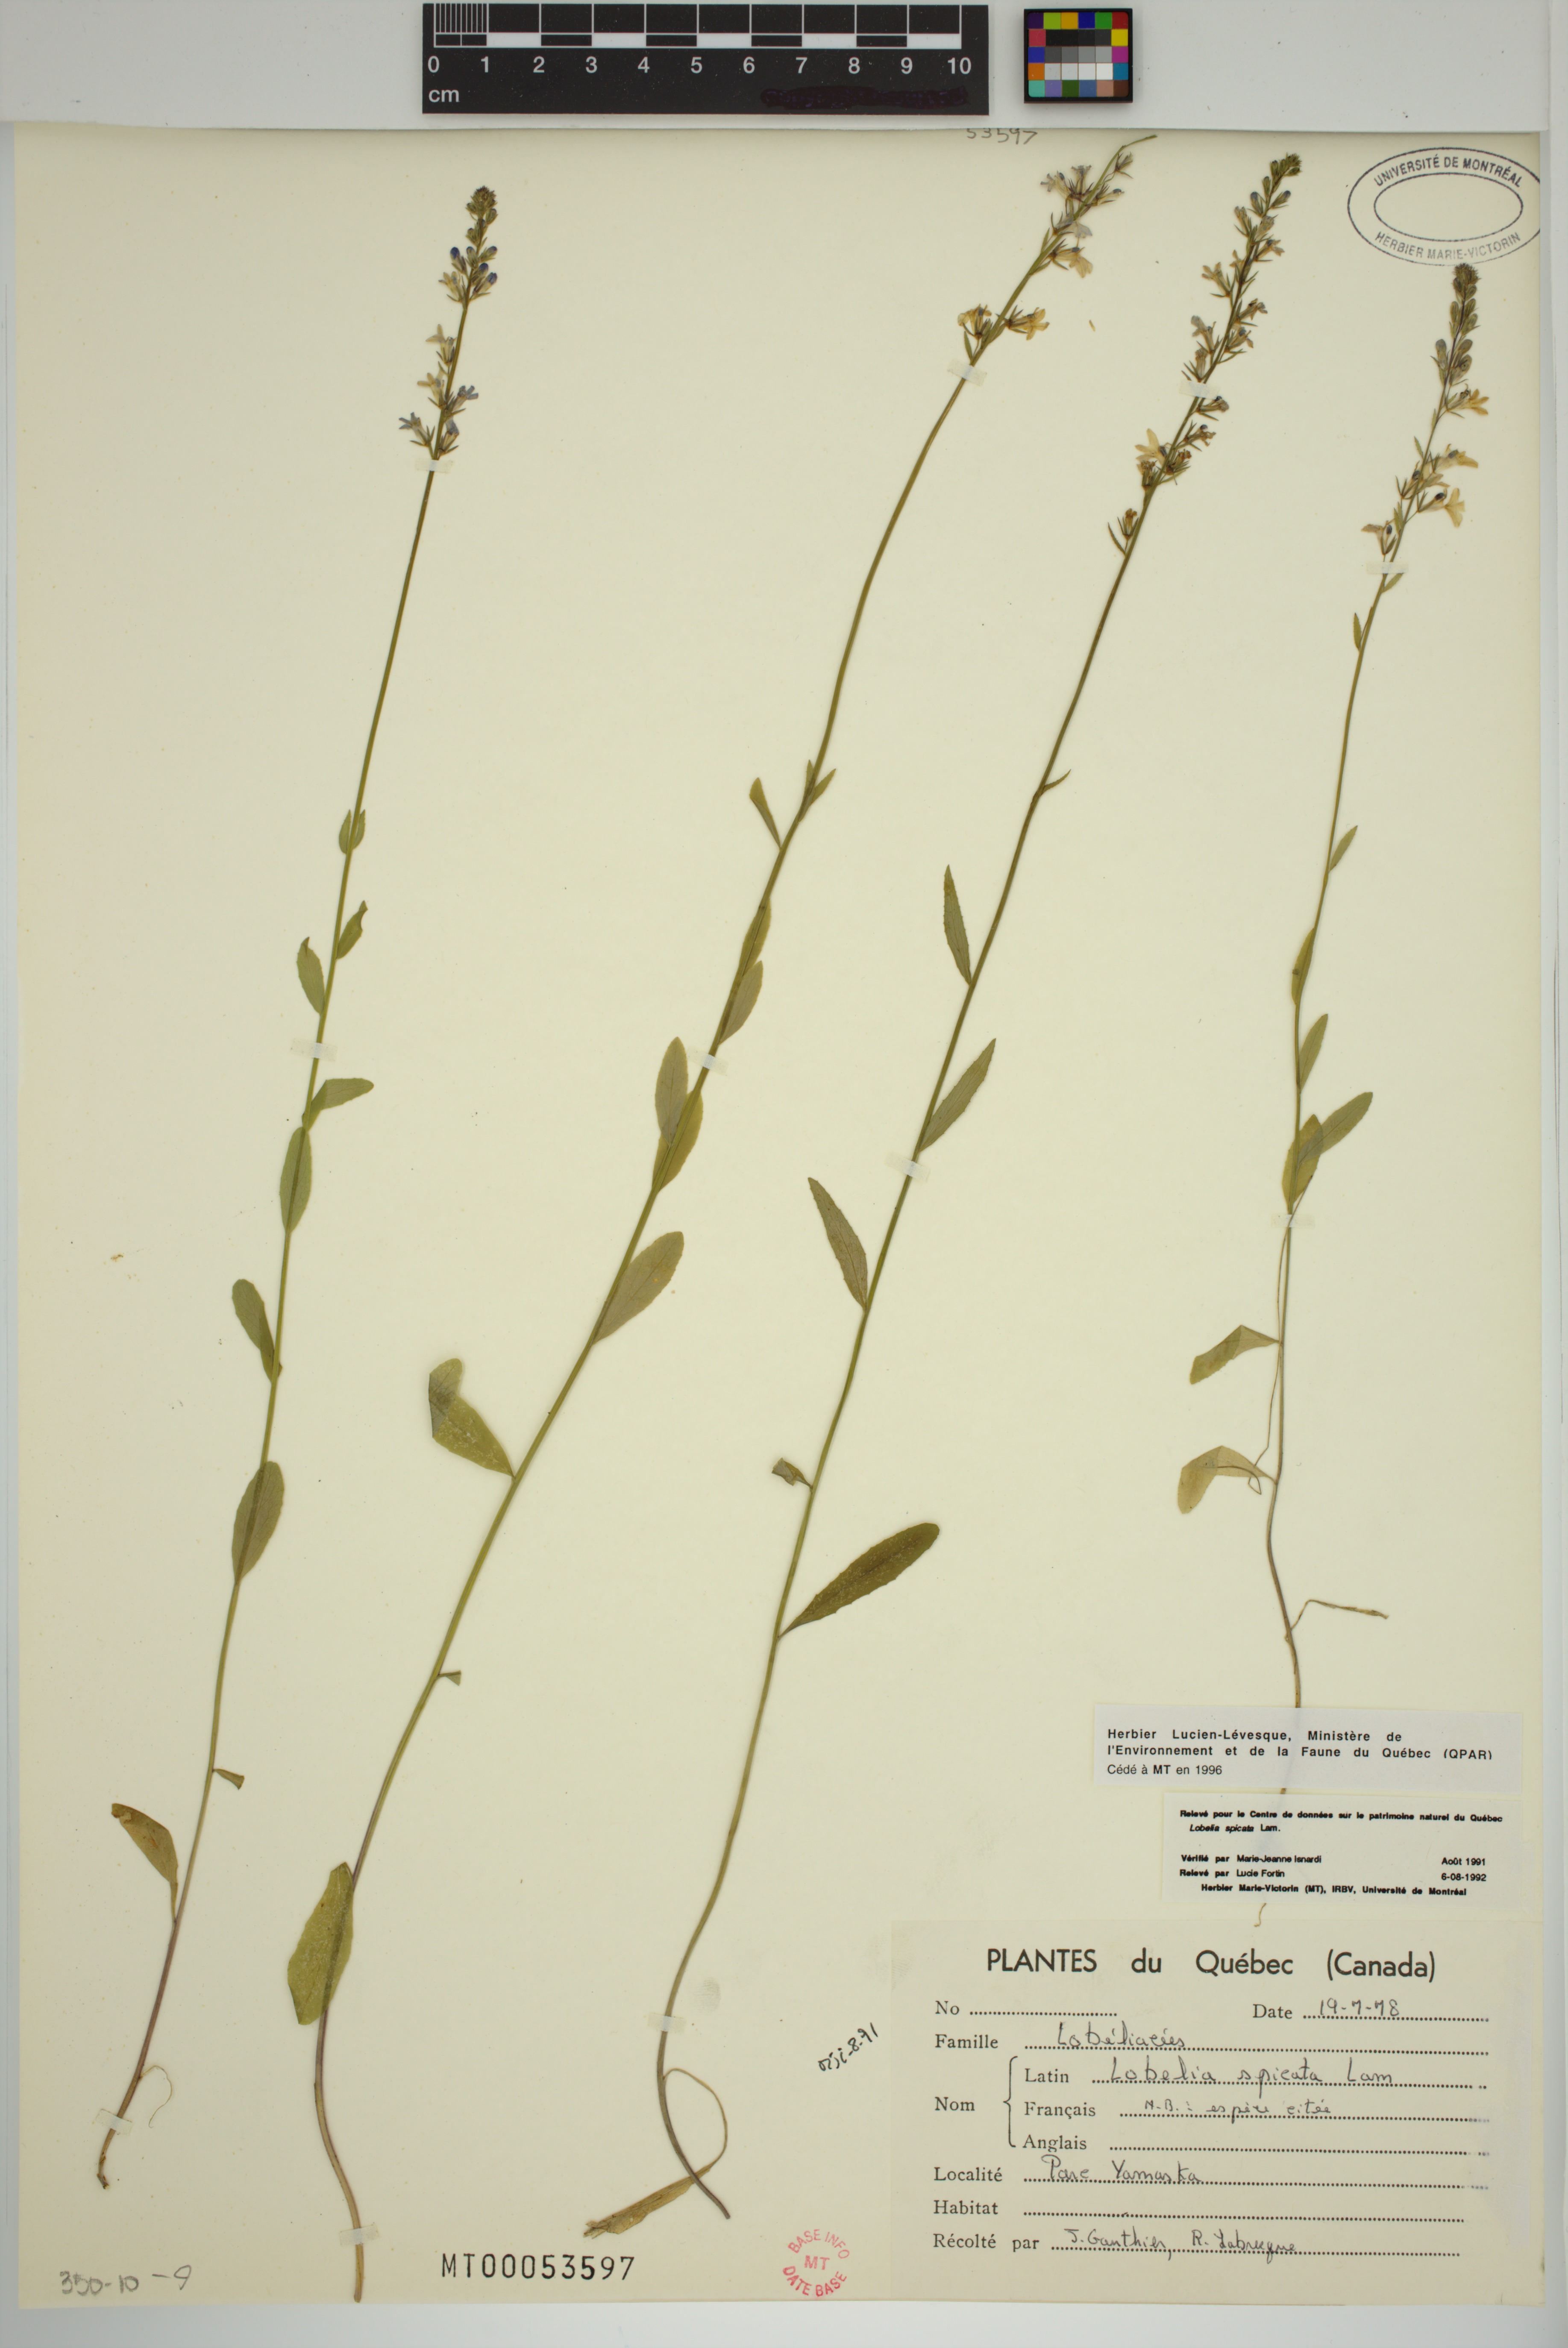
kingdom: Plantae
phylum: Tracheophyta
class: Magnoliopsida
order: Asterales
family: Campanulaceae
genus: Lobelia
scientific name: Lobelia spicata
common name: Pale-spike lobelia
